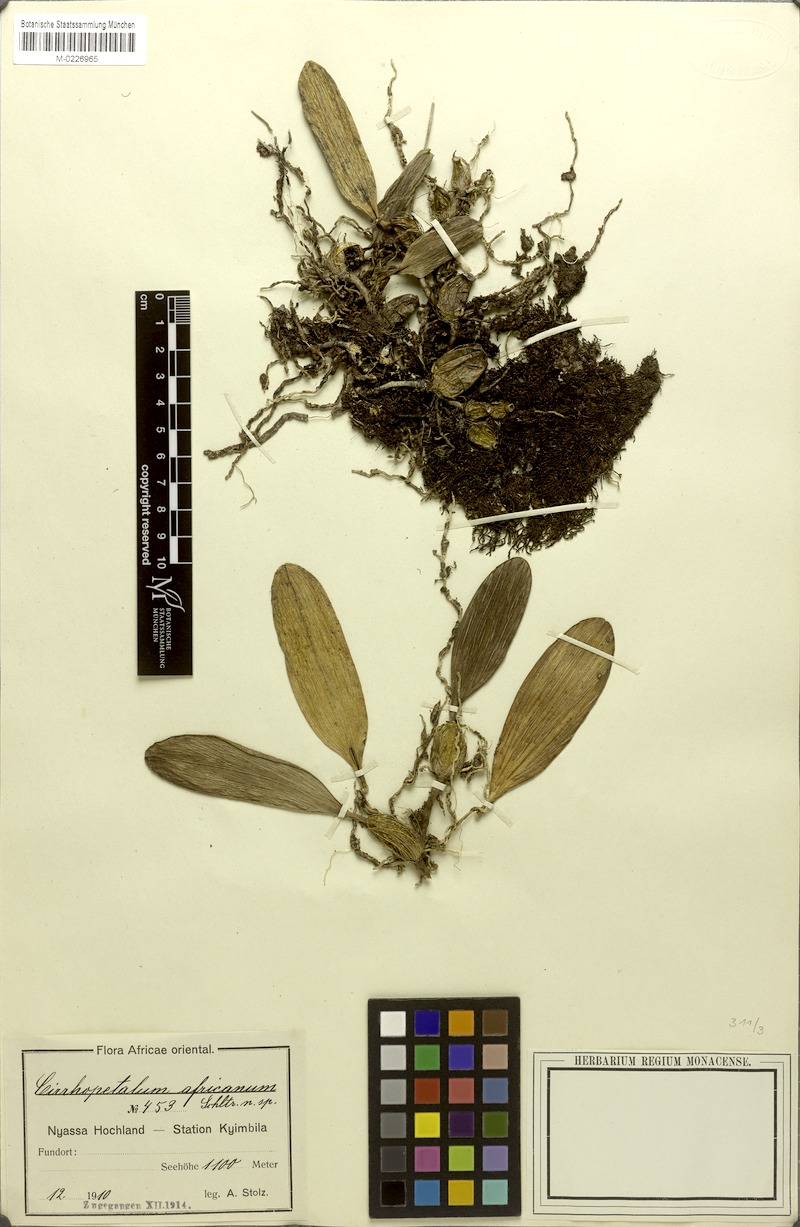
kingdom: Plantae
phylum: Tracheophyta
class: Liliopsida
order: Asparagales
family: Orchidaceae
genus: Bulbophyllum
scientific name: Bulbophyllum longiflorum
